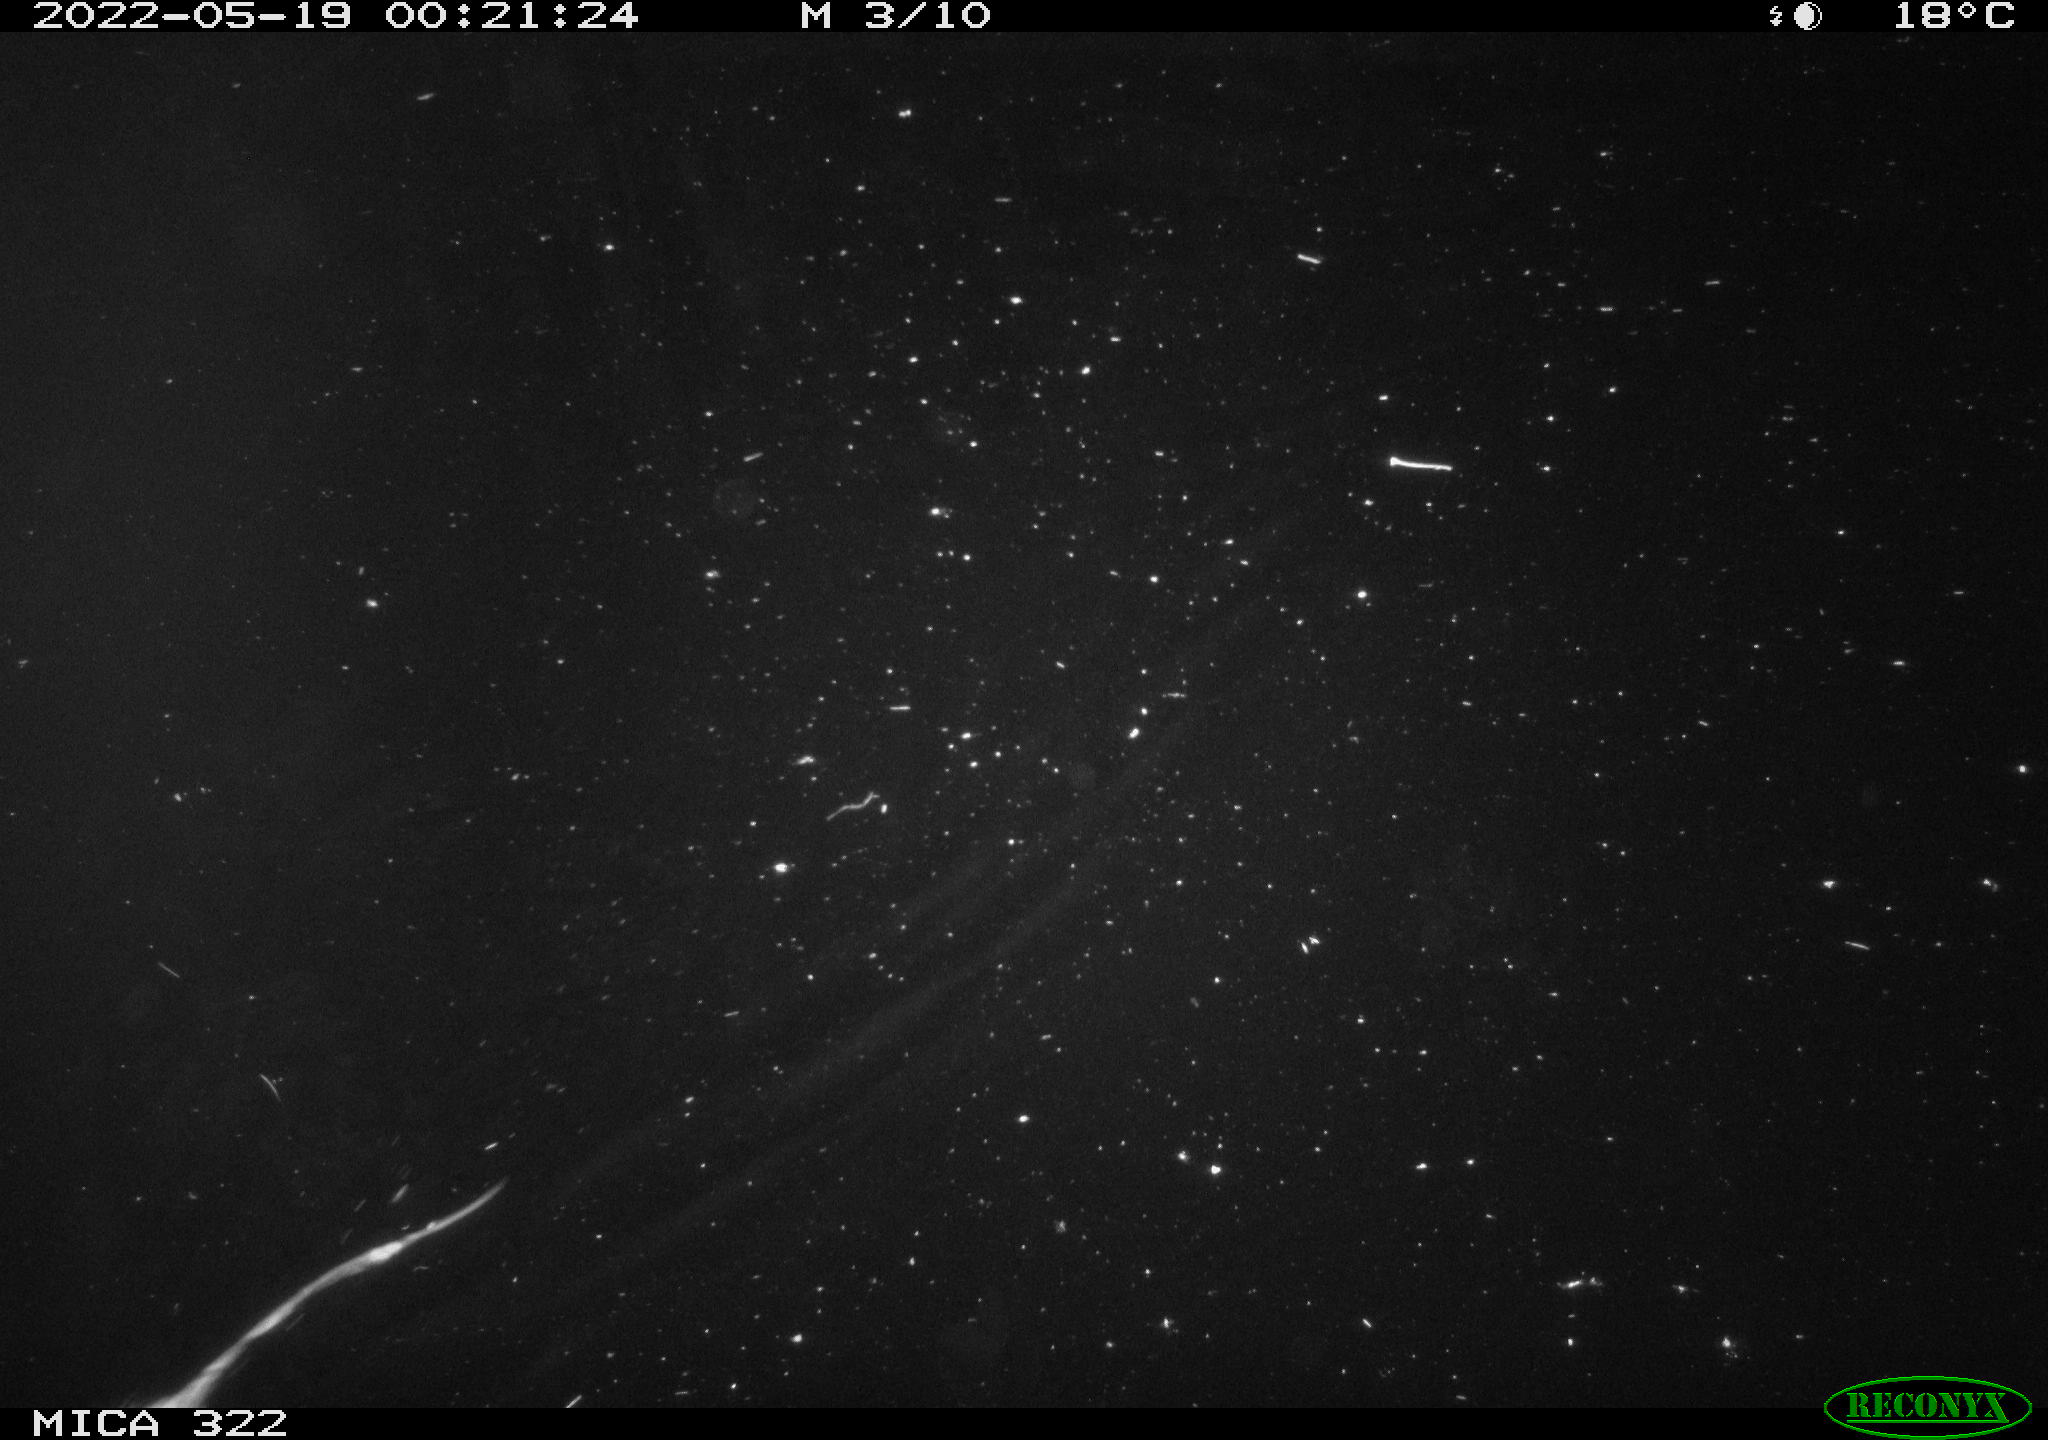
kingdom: Animalia
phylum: Chordata
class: Mammalia
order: Rodentia
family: Muridae
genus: Rattus
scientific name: Rattus norvegicus
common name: Brown rat
